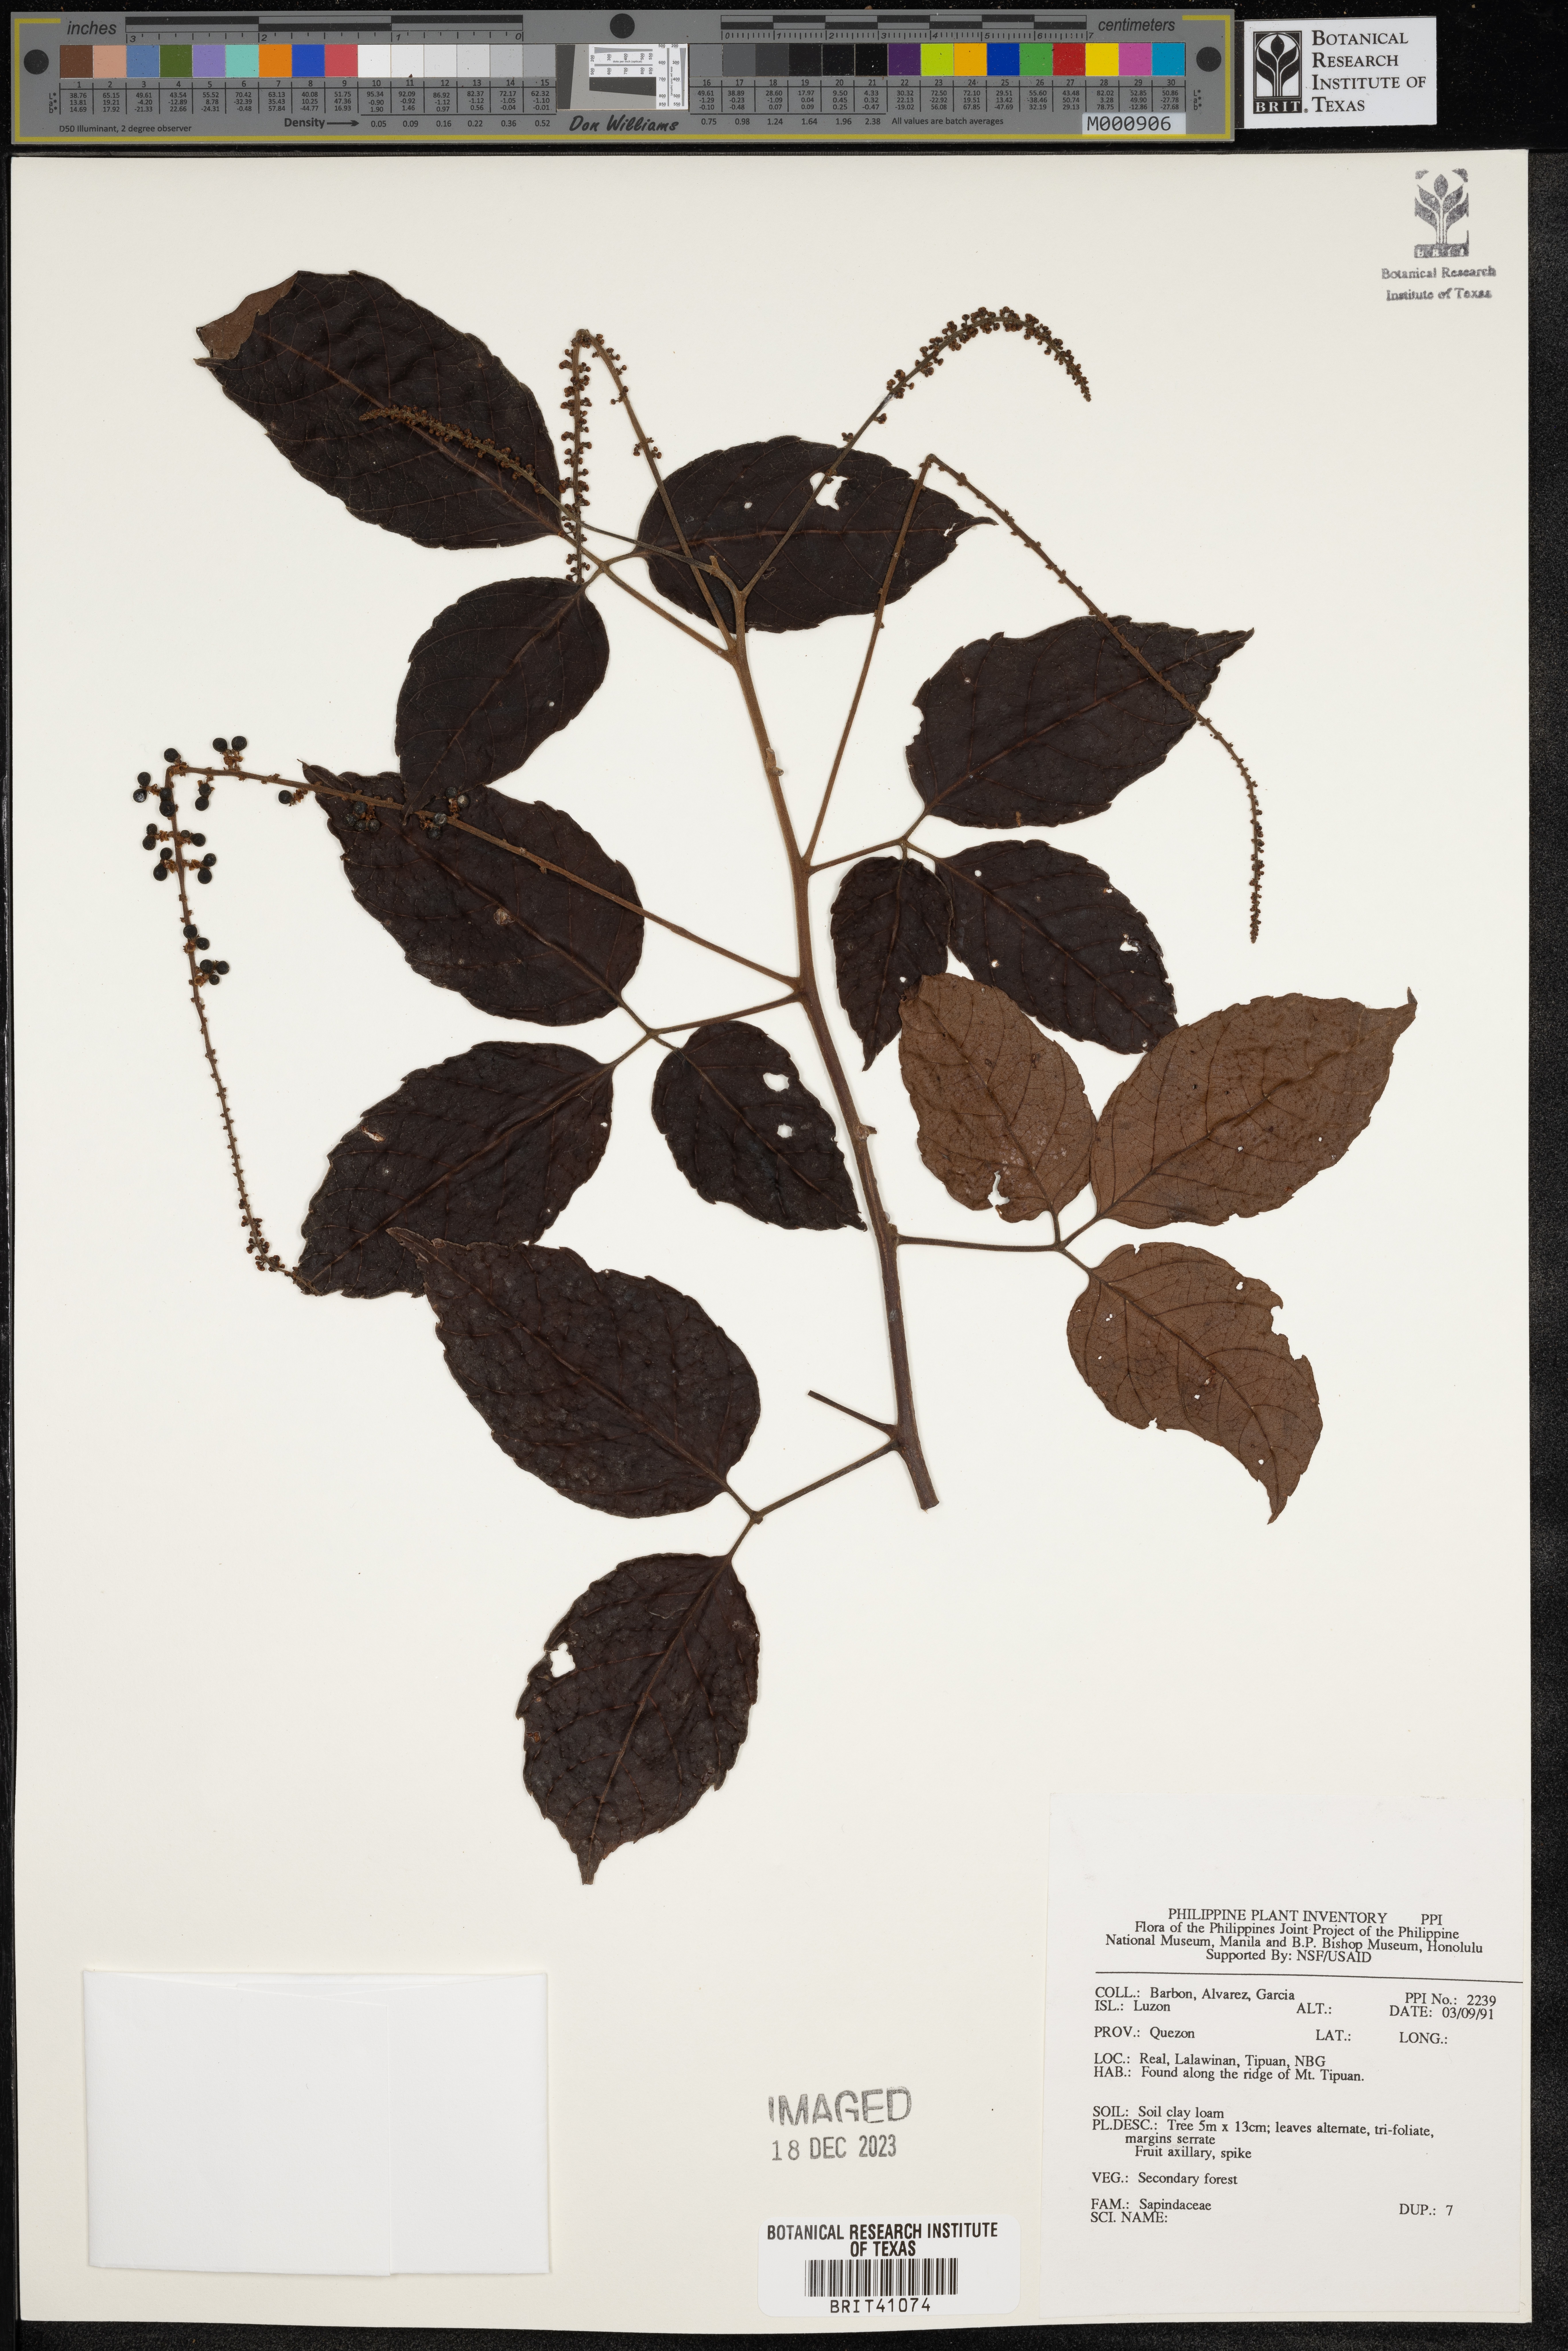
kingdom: Plantae
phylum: Tracheophyta
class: Magnoliopsida
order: Sapindales
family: Sapindaceae
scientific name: Sapindaceae
